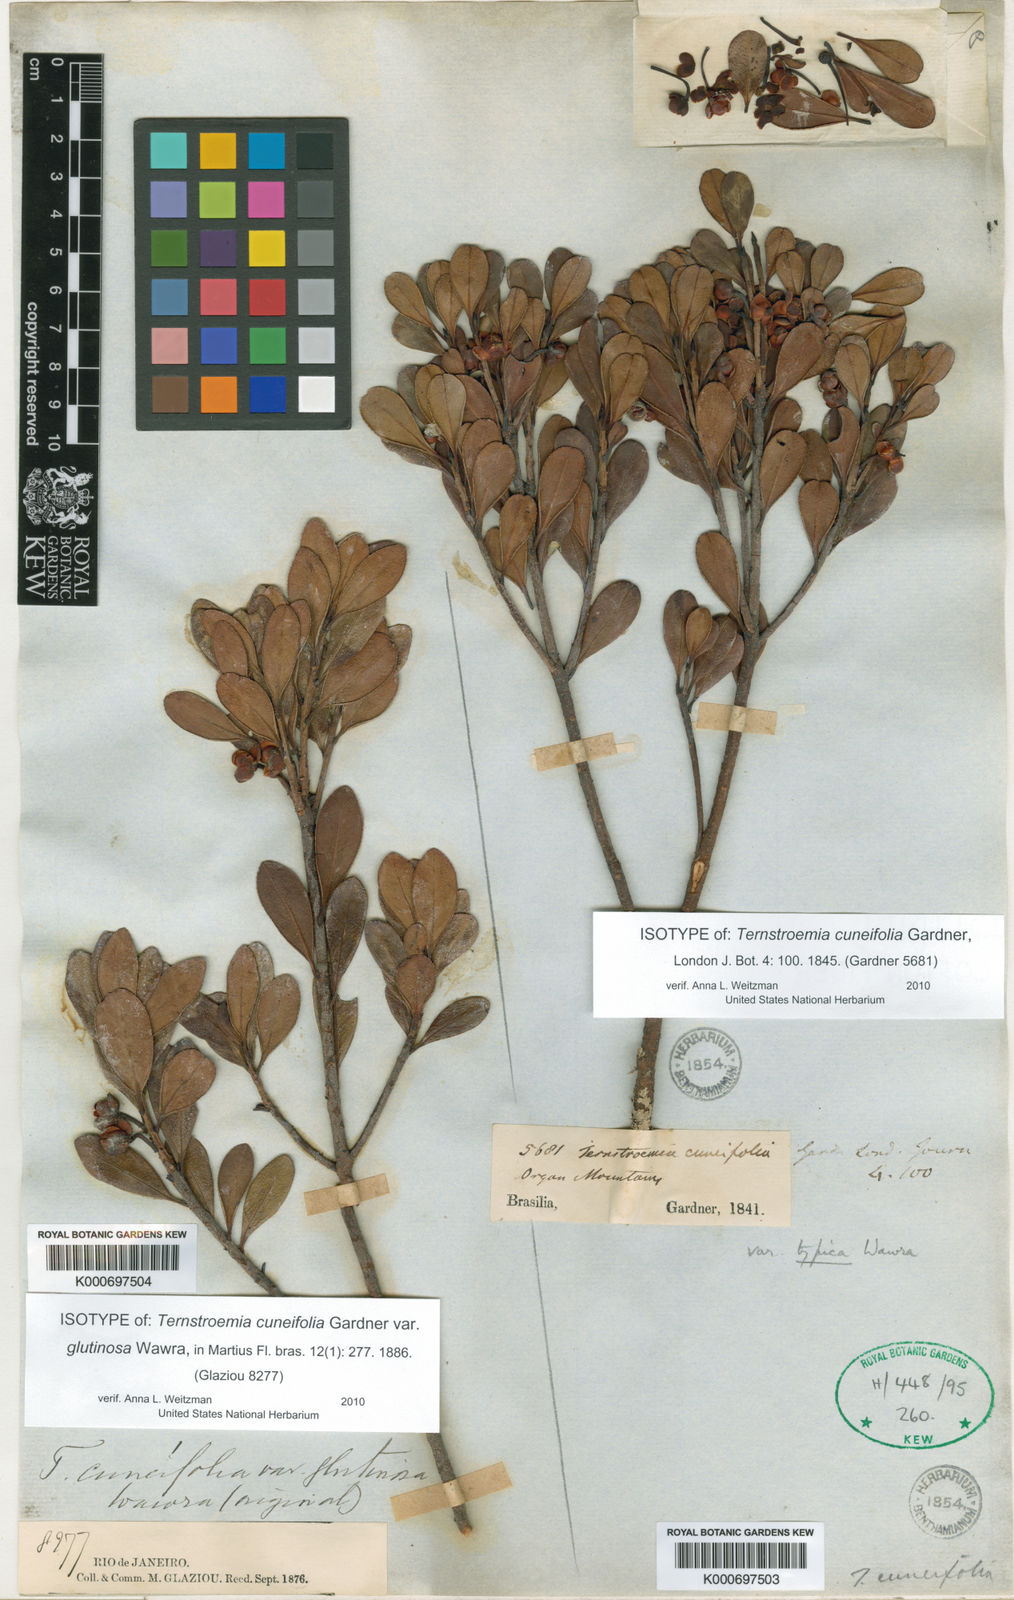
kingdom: Plantae
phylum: Tracheophyta
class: Magnoliopsida
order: Ericales
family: Pentaphylacaceae
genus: Ternstroemia
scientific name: Ternstroemia cuneifolia
